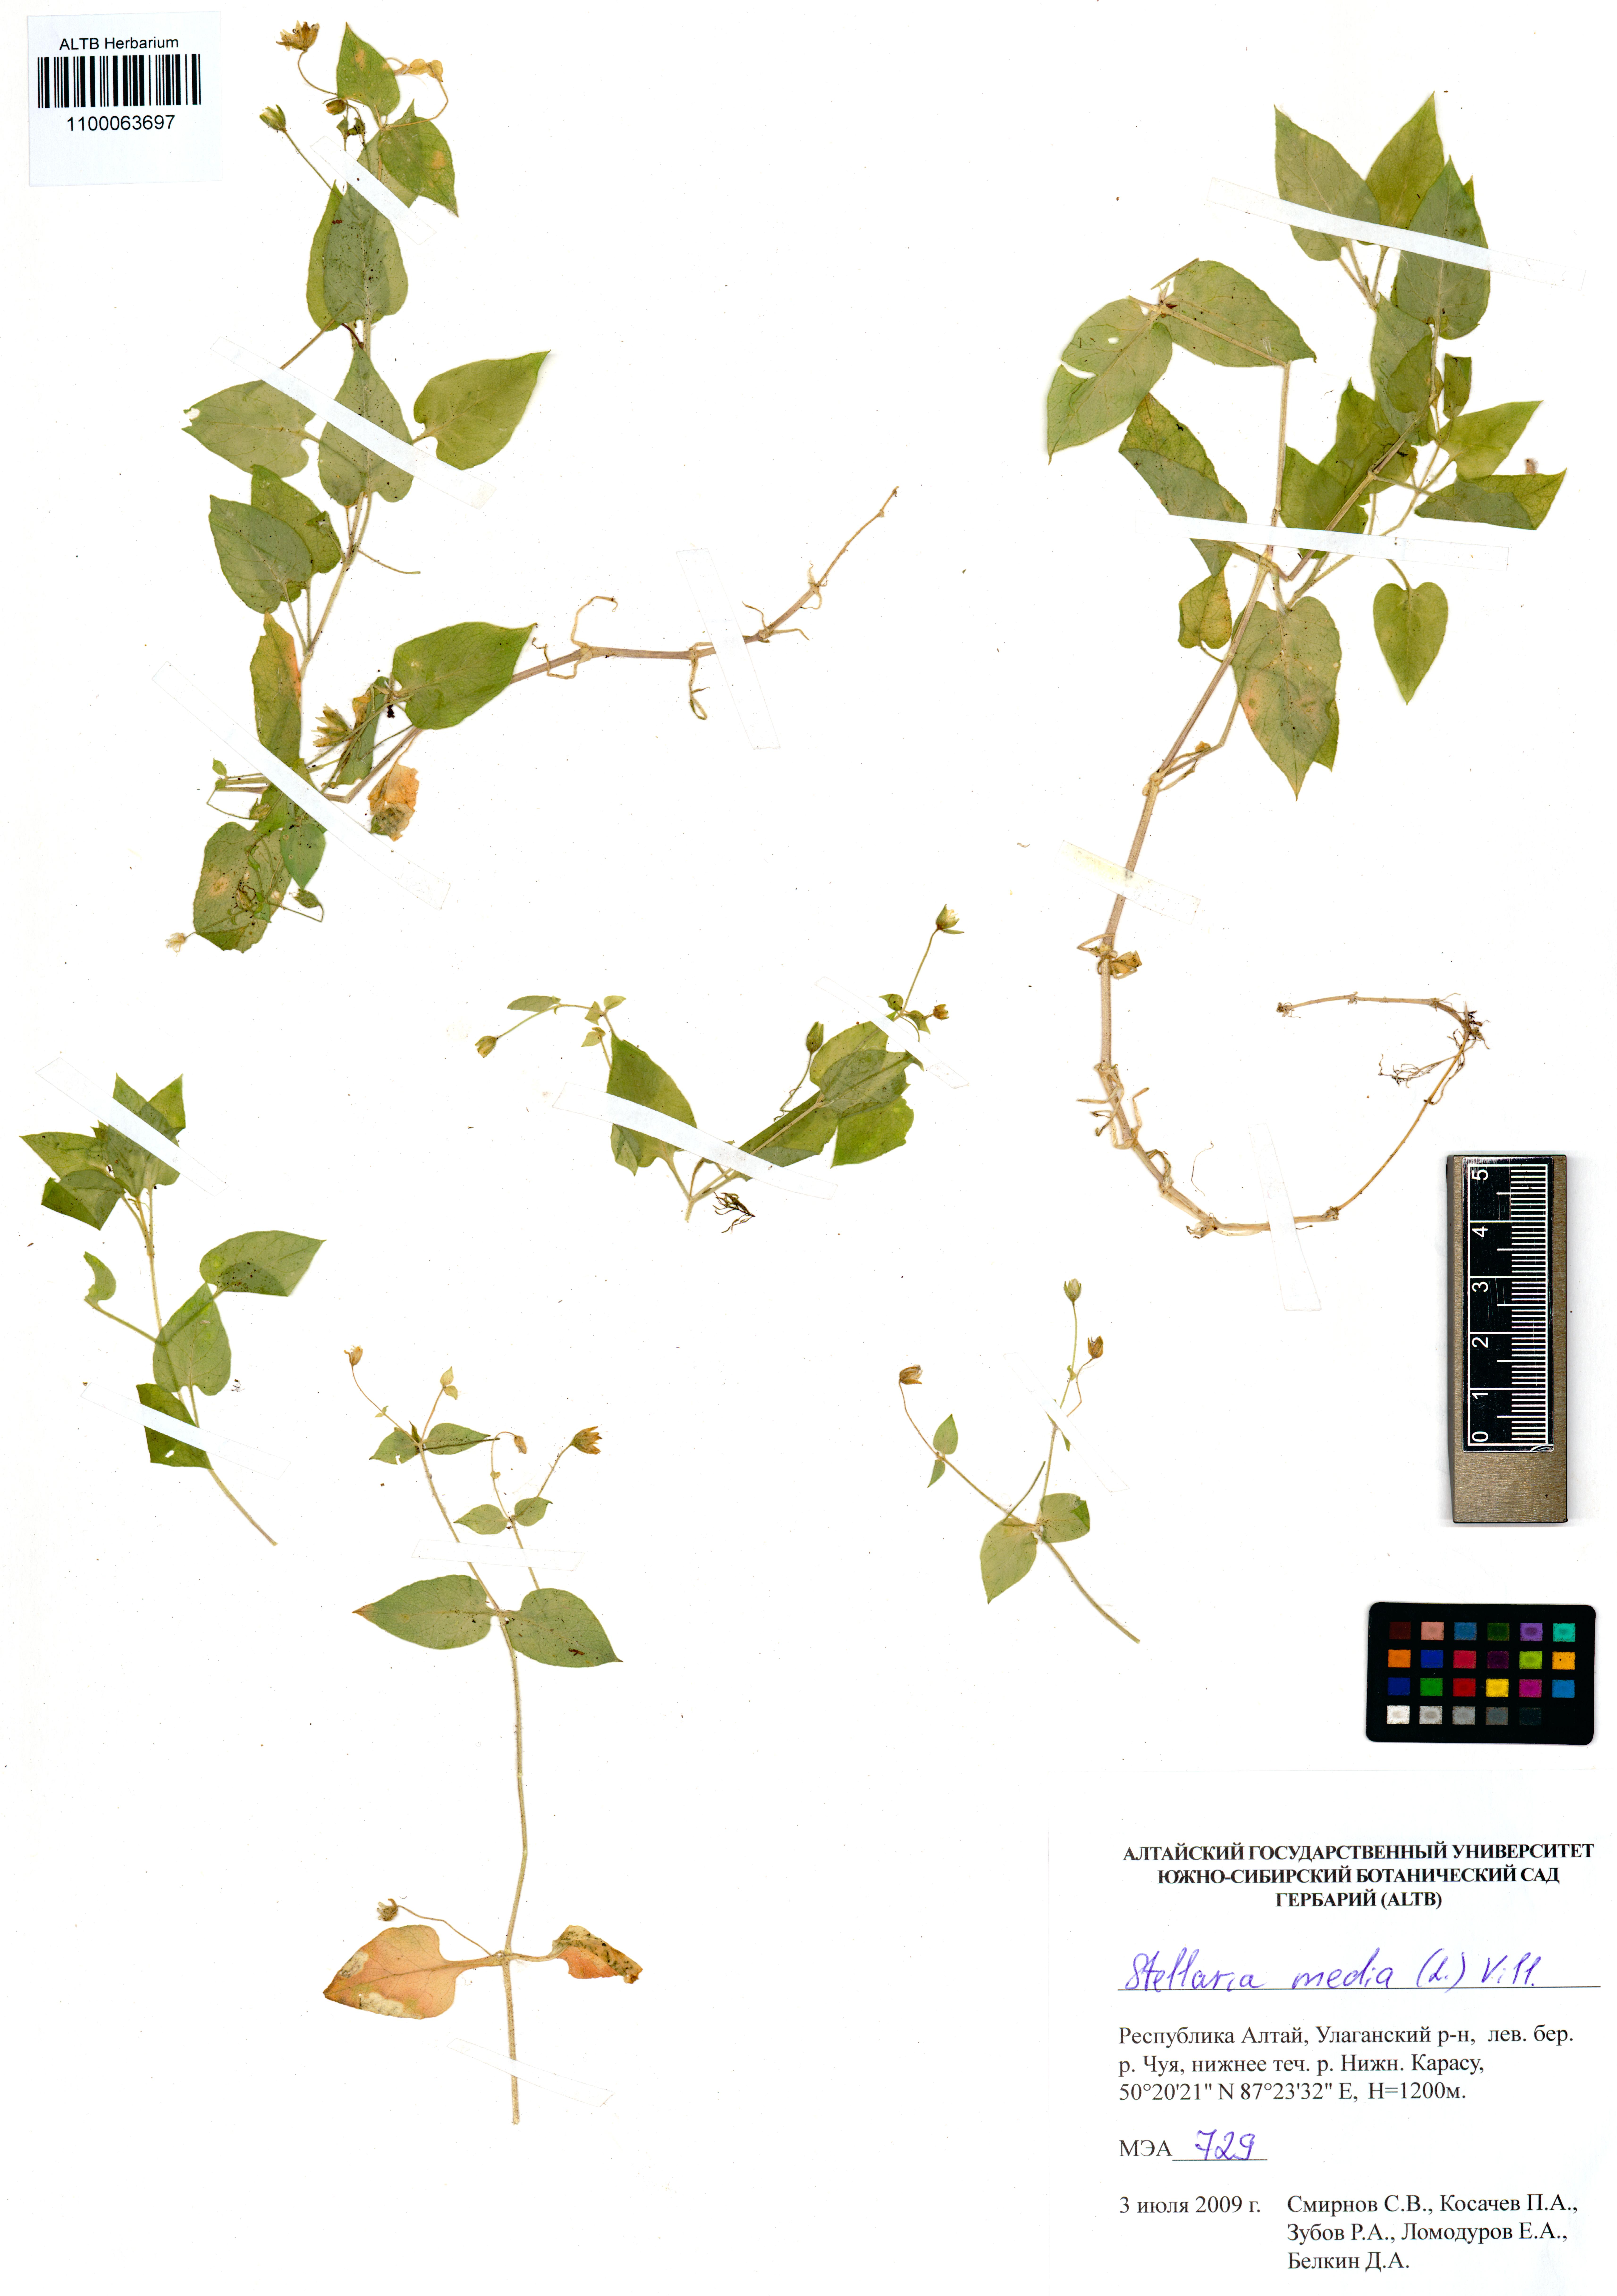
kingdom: Plantae
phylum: Tracheophyta
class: Magnoliopsida
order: Caryophyllales
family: Caryophyllaceae
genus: Stellaria
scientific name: Stellaria media
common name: Common chickweed
